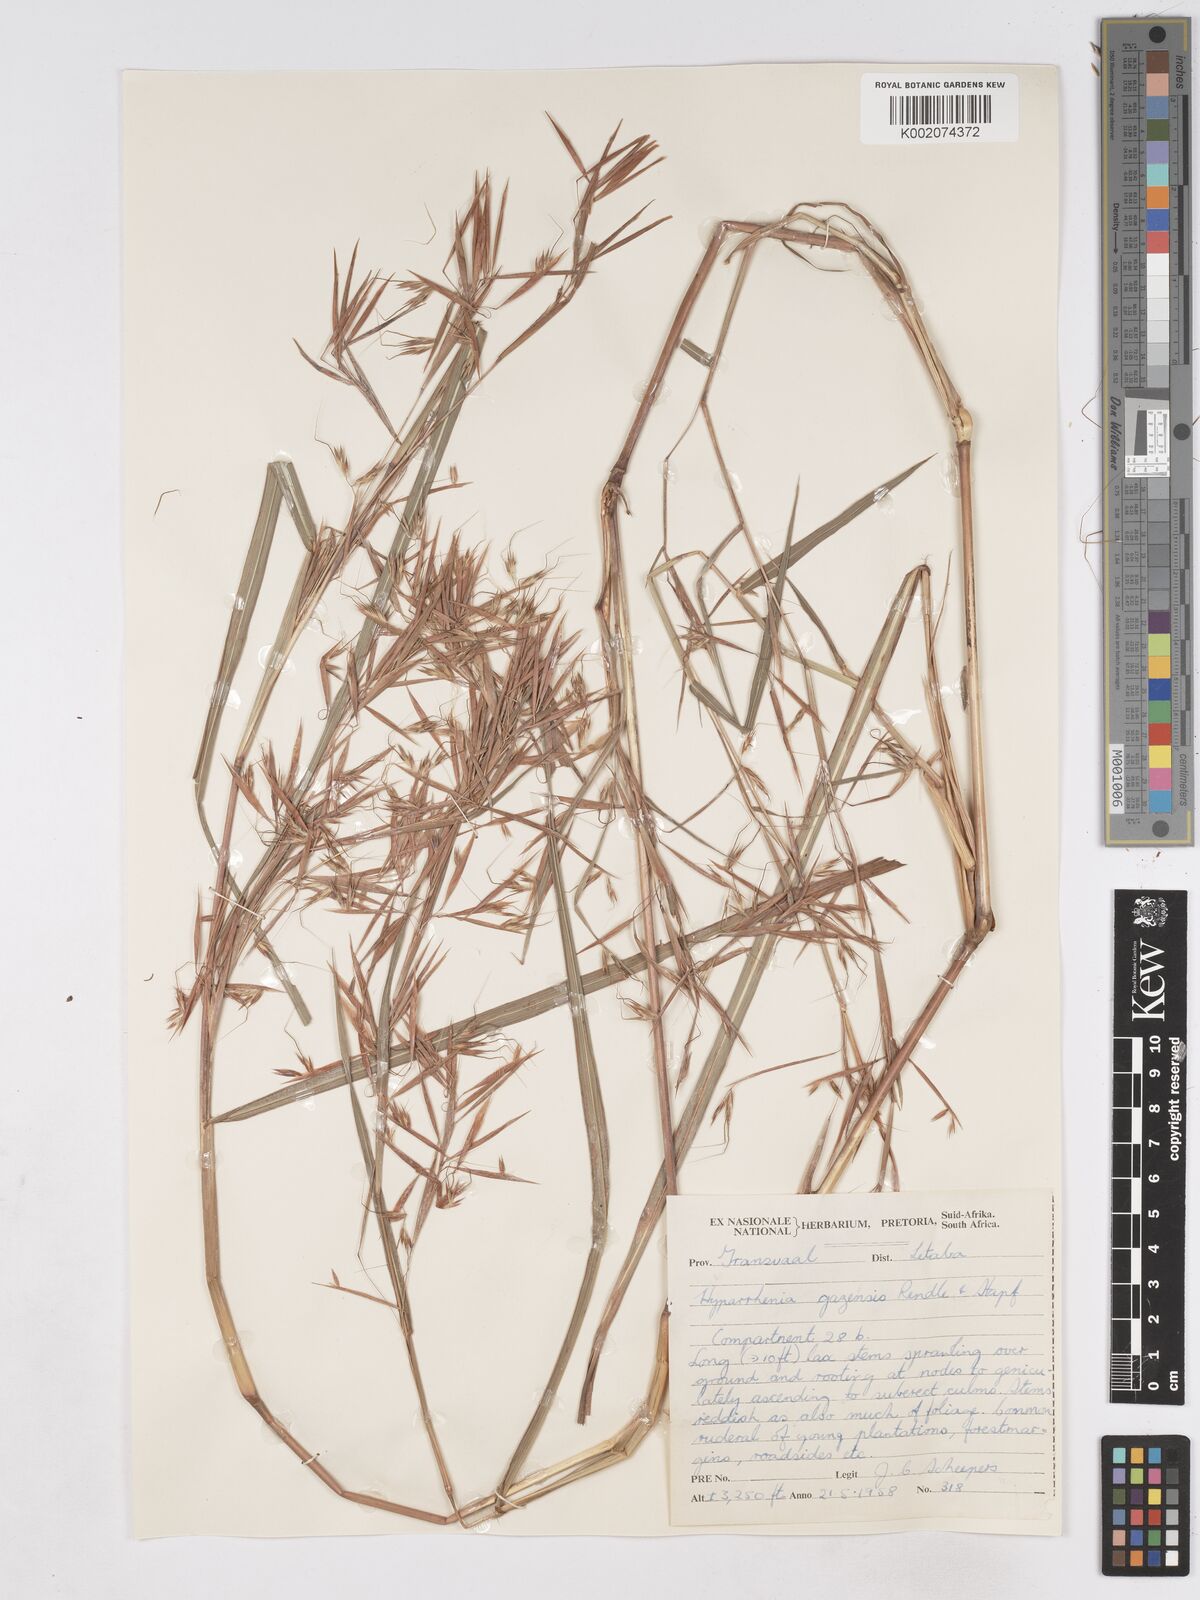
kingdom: Plantae
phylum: Tracheophyta
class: Liliopsida
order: Poales
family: Poaceae
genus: Hyparrhenia
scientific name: Hyparrhenia gazensis
